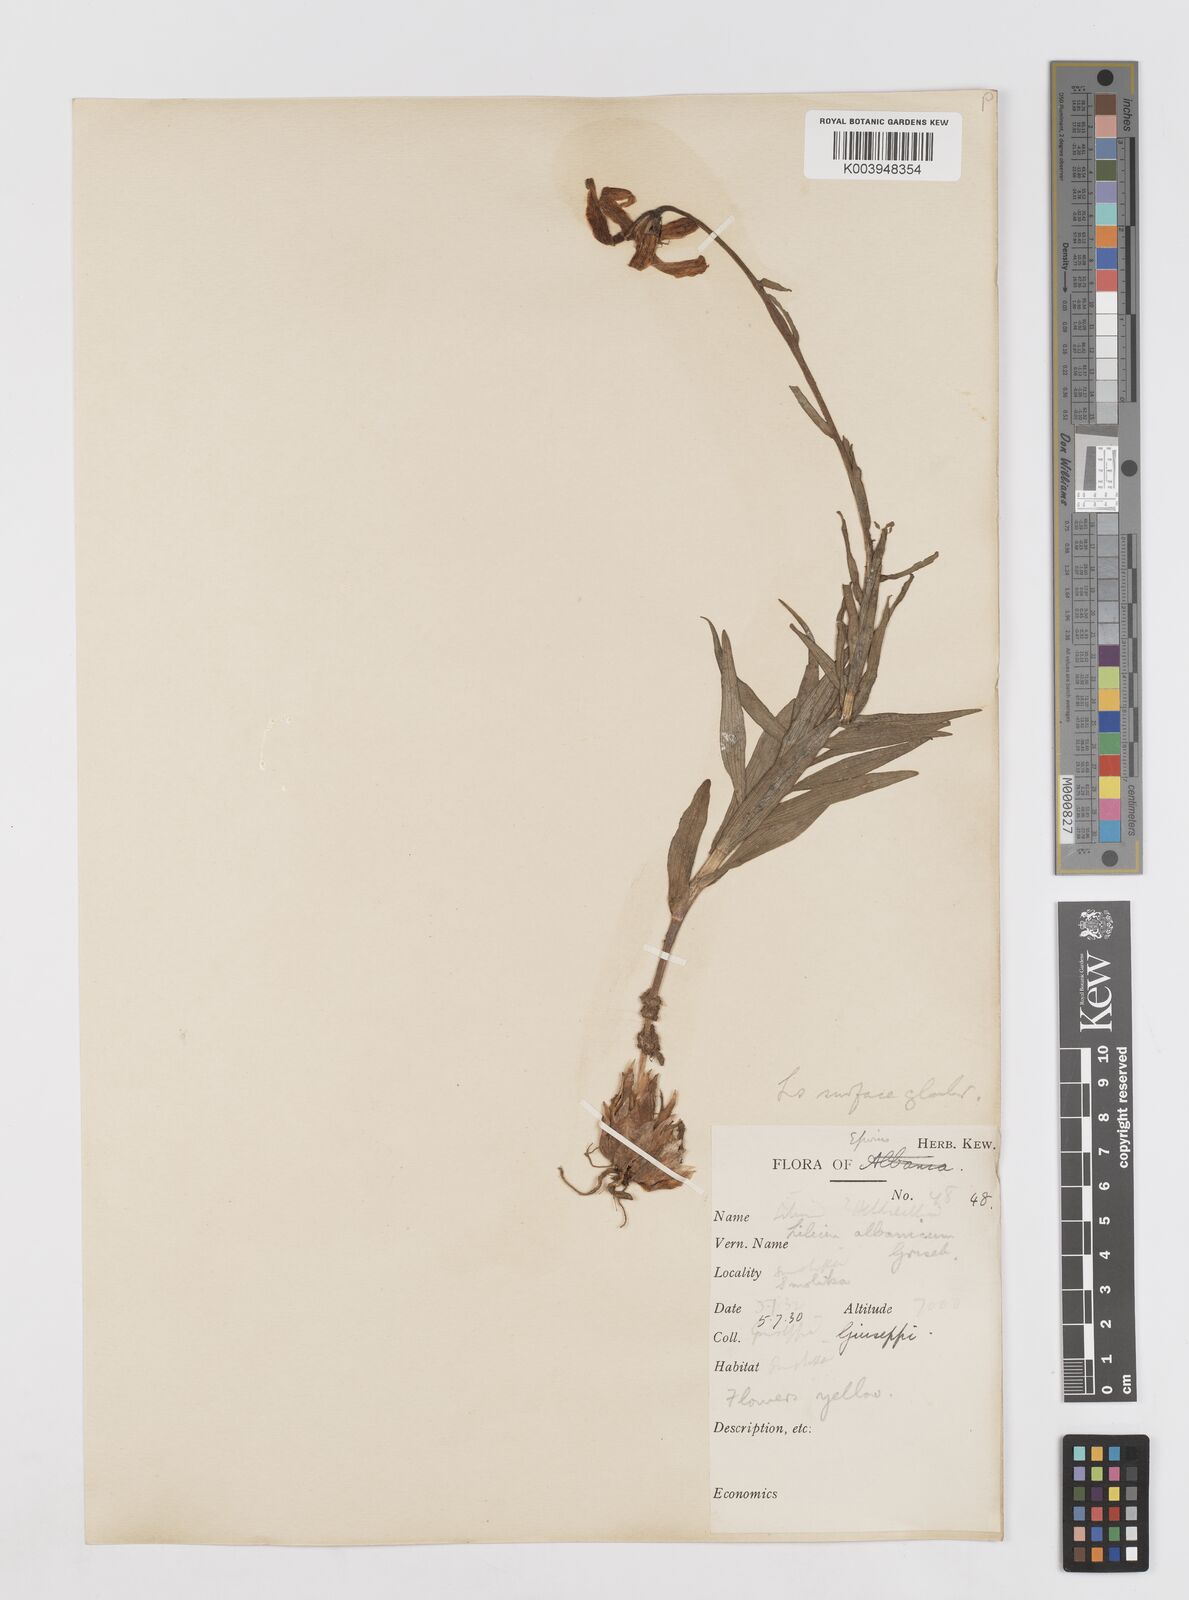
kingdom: Plantae
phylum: Tracheophyta
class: Liliopsida
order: Liliales
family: Liliaceae
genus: Lilium
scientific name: Lilium albanicum
